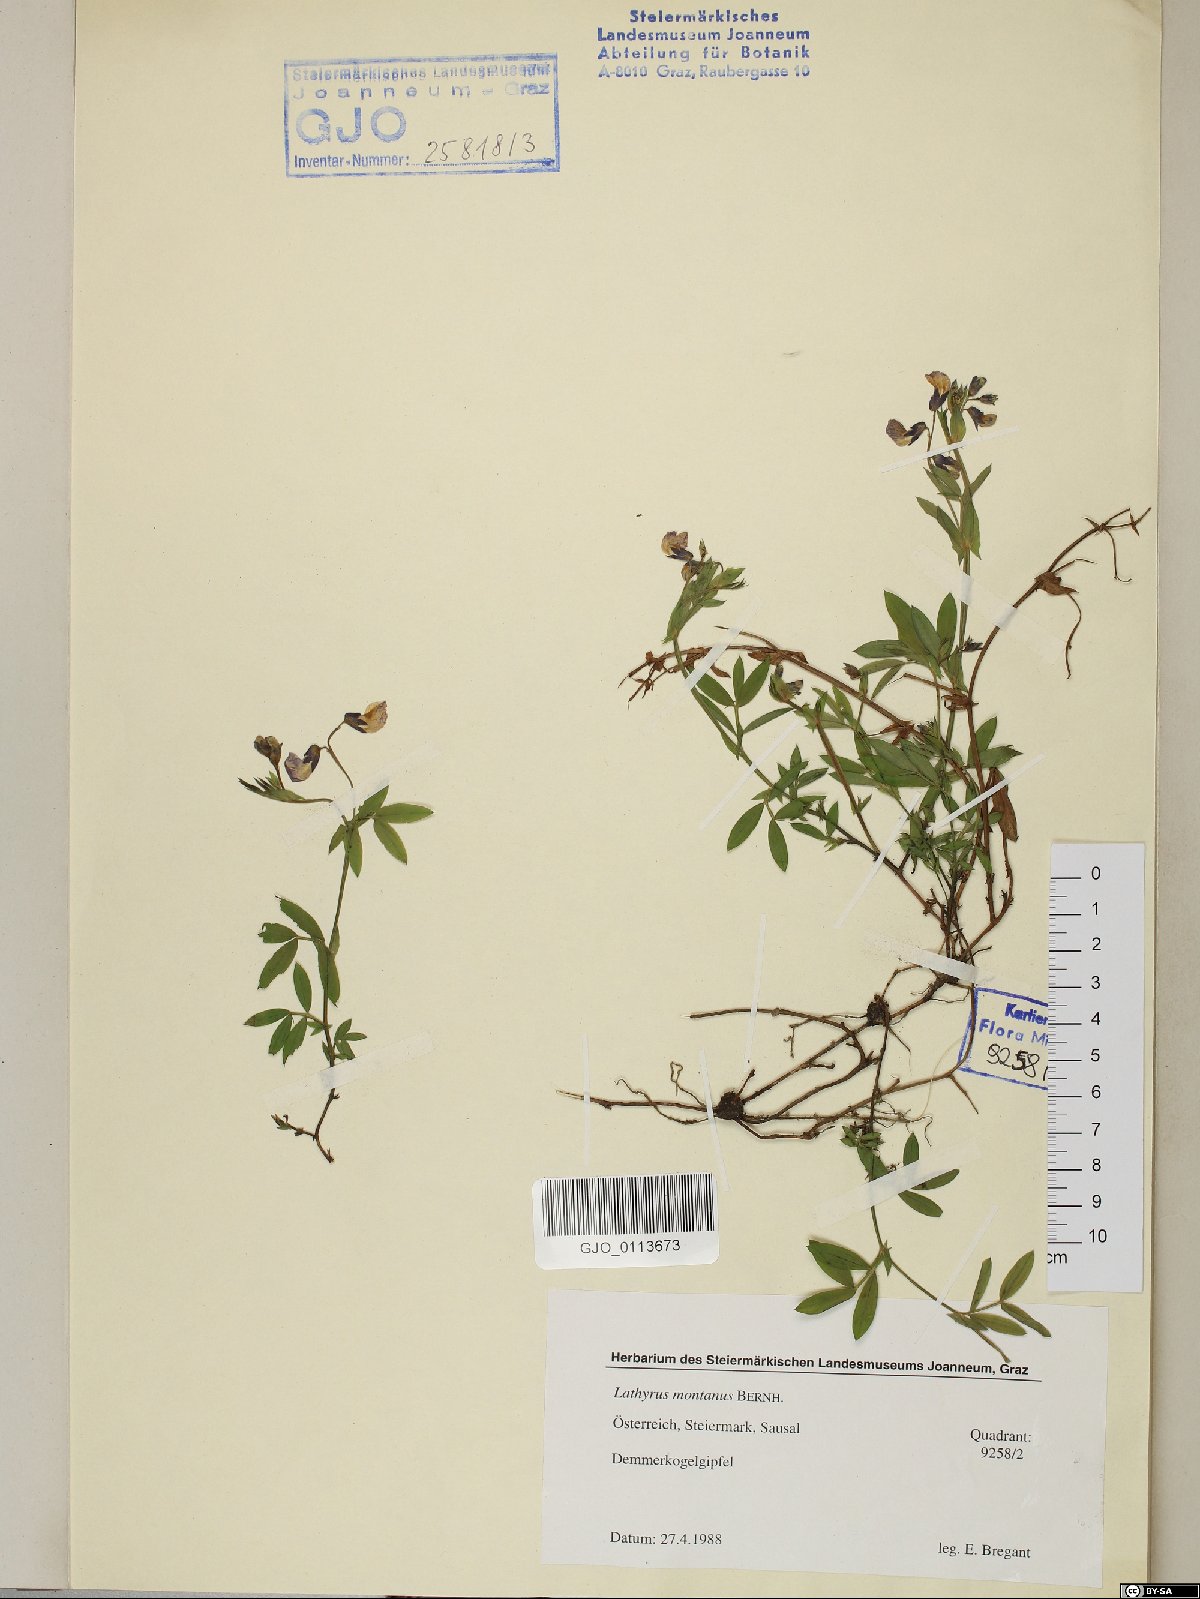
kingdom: Plantae
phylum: Tracheophyta
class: Magnoliopsida
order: Fabales
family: Fabaceae
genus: Lathyrus
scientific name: Lathyrus linifolius
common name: Bitter-vetch
